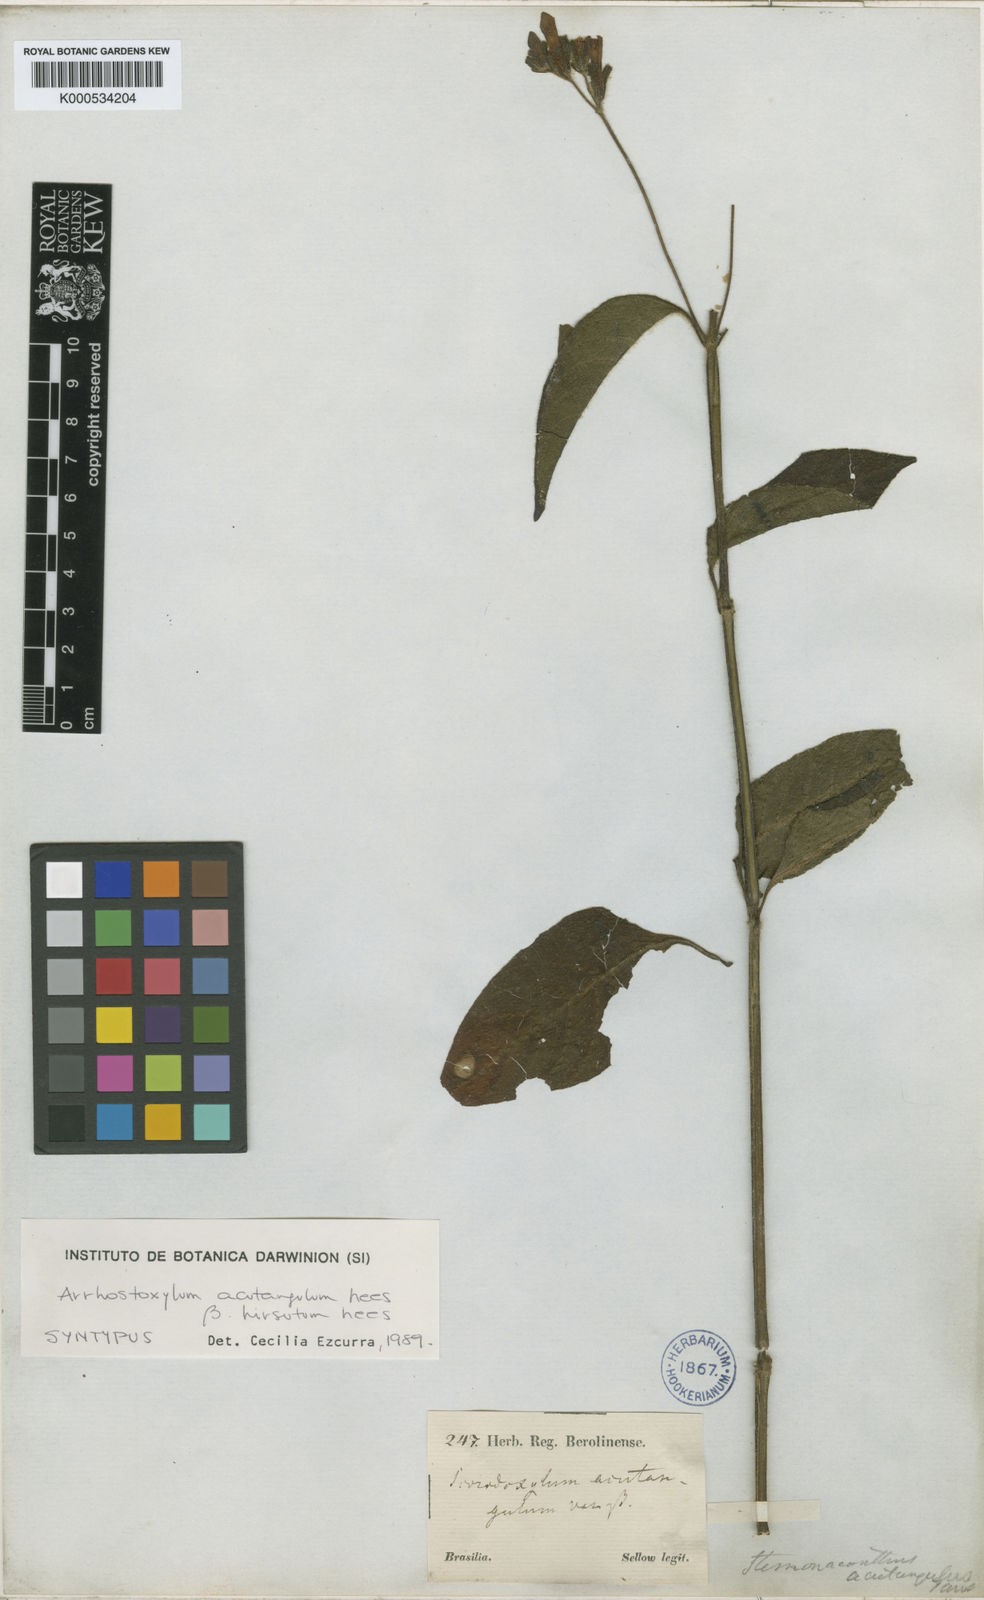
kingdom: Plantae
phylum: Tracheophyta
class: Magnoliopsida
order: Lamiales
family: Acanthaceae
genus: Ruellia
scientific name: Ruellia acutangula
